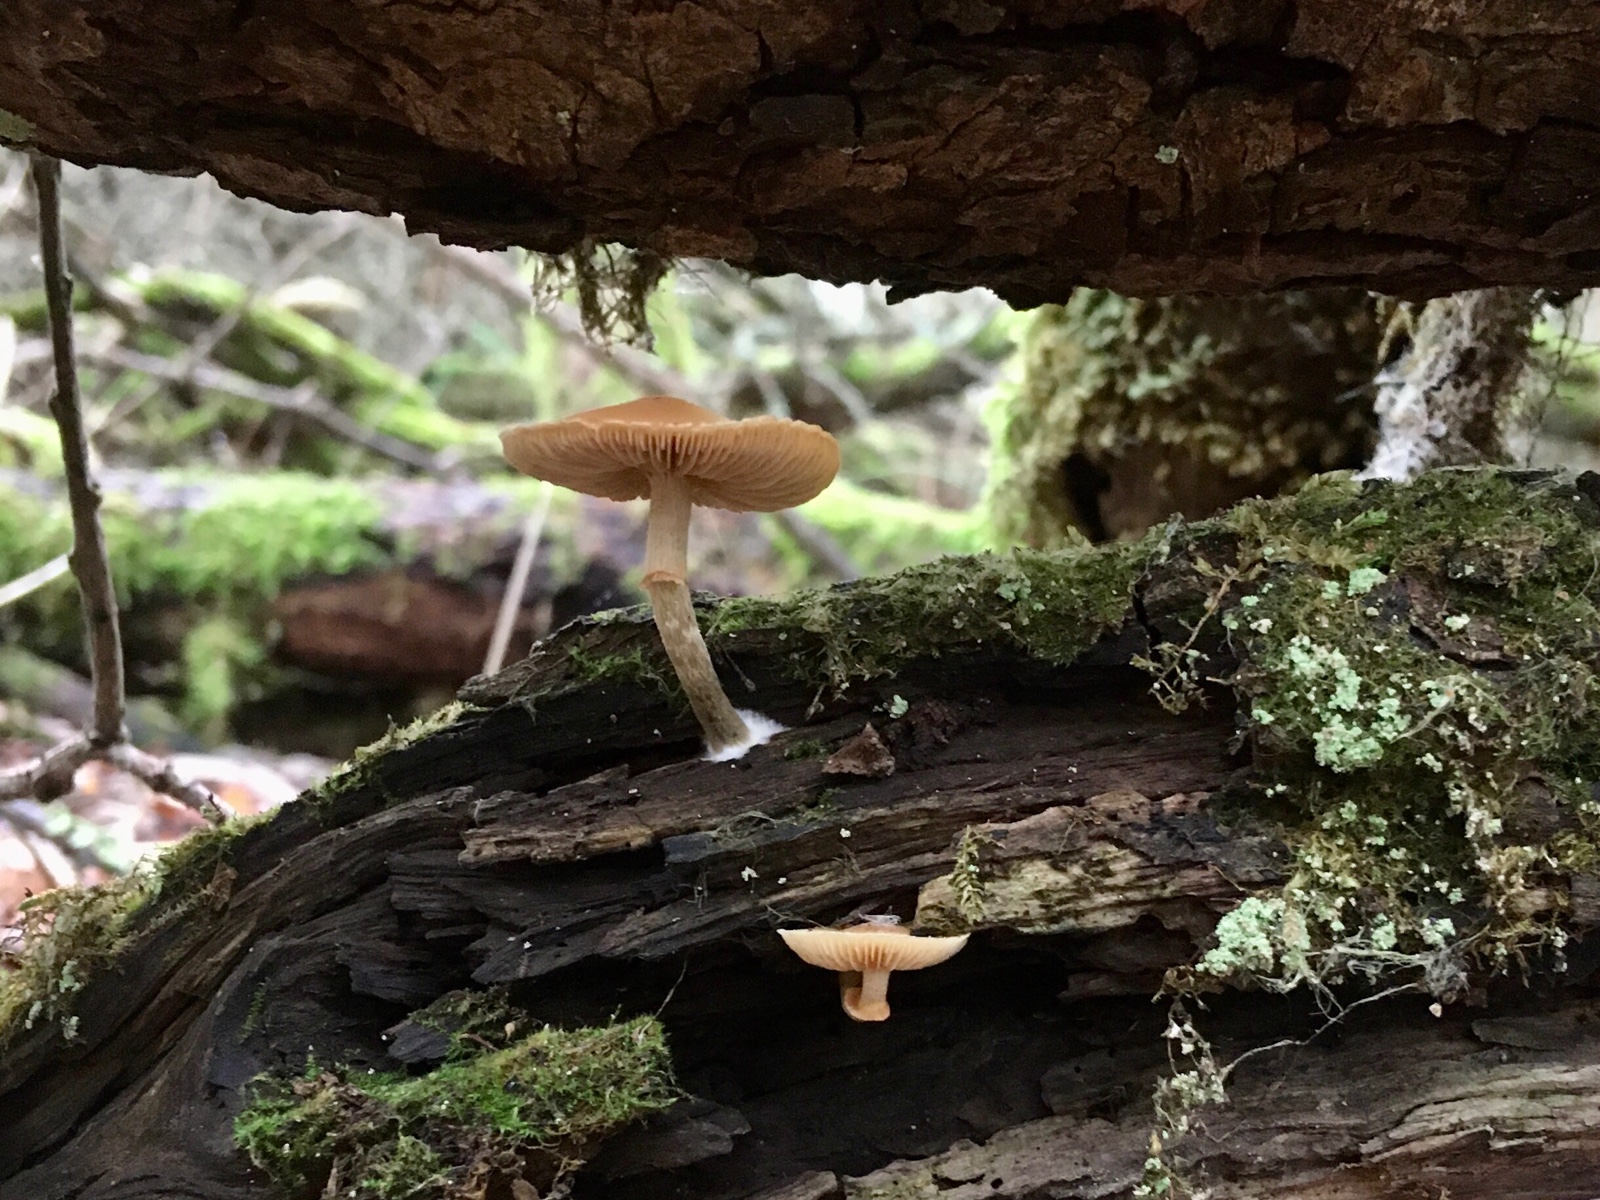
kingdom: Fungi
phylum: Basidiomycota
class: Agaricomycetes
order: Agaricales
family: Hymenogastraceae
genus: Galerina
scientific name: Galerina marginata
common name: randbæltet hjelmhat
